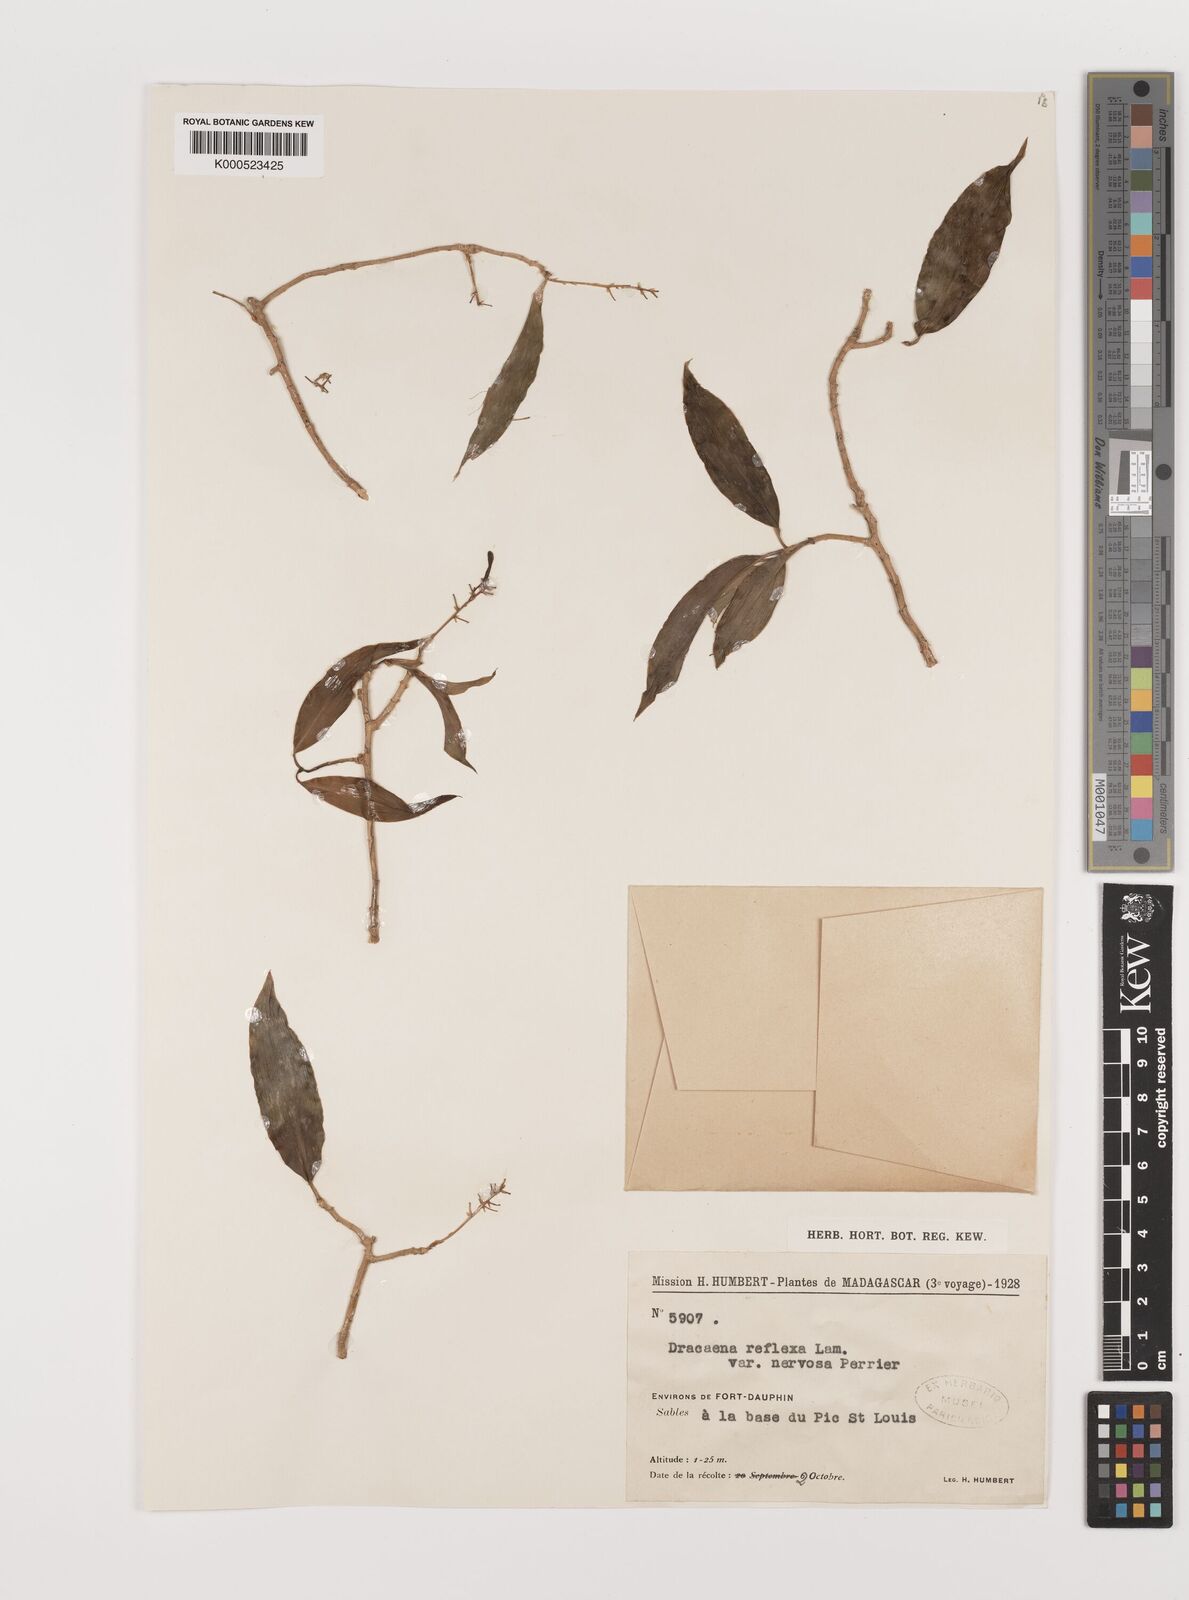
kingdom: Plantae
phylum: Tracheophyta
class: Liliopsida
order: Asparagales
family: Asparagaceae
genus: Dracaena
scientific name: Dracaena reflexa
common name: Song-of-india
